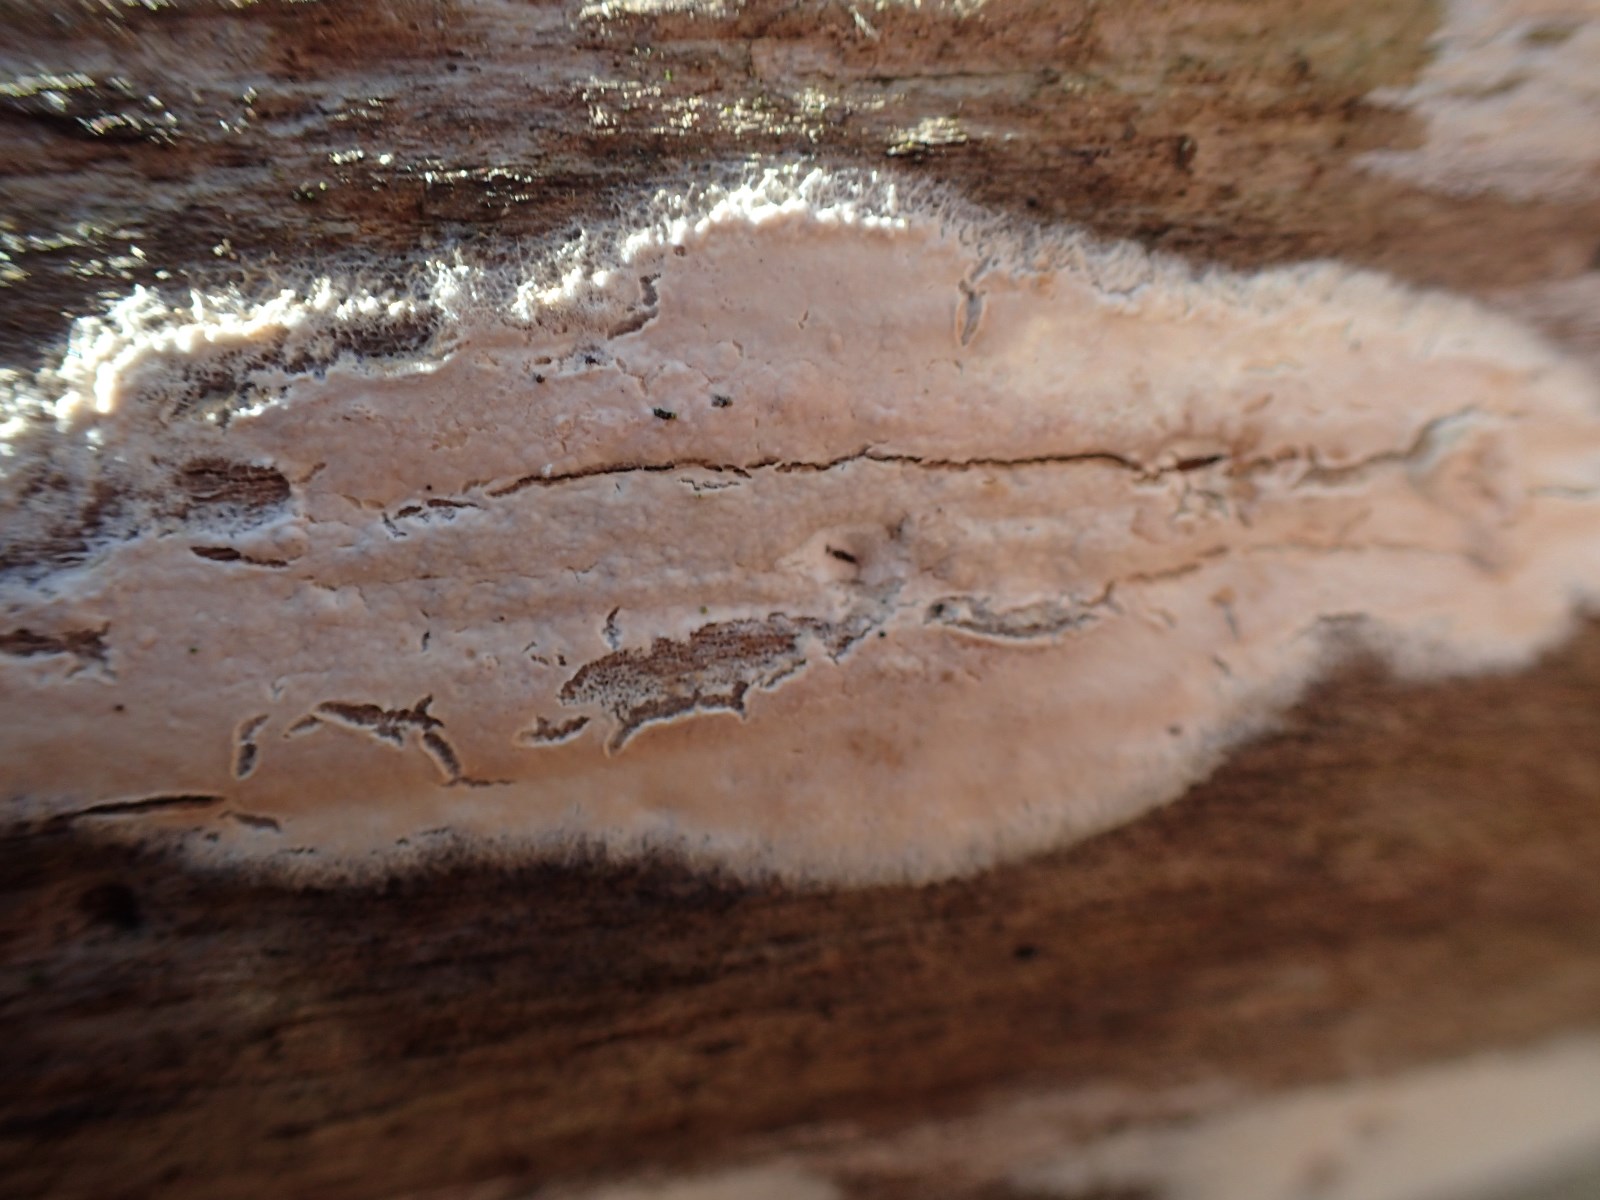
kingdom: Fungi
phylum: Basidiomycota
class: Agaricomycetes
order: Agaricales
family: Physalacriaceae
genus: Cylindrobasidium
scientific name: Cylindrobasidium evolvens
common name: sprækkehinde
